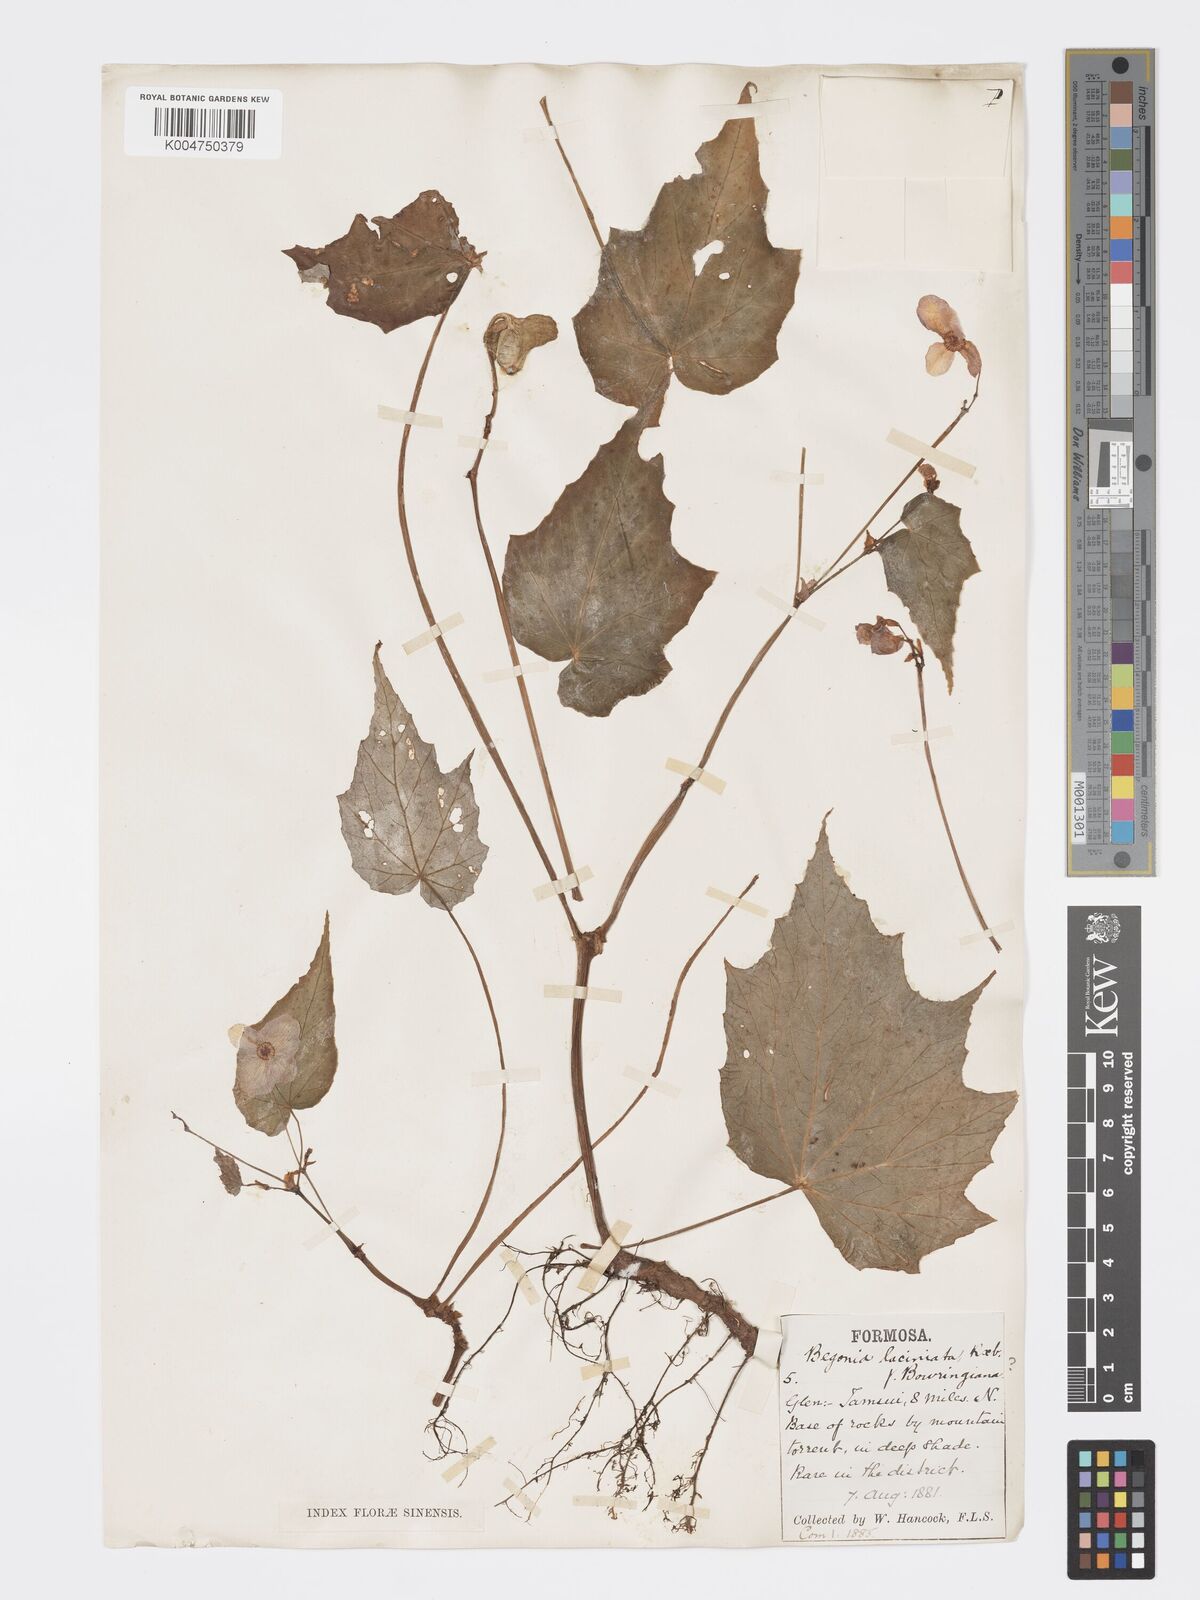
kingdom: Plantae
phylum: Tracheophyta
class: Magnoliopsida
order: Cucurbitales
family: Begoniaceae
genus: Begonia
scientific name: Begonia palmata
